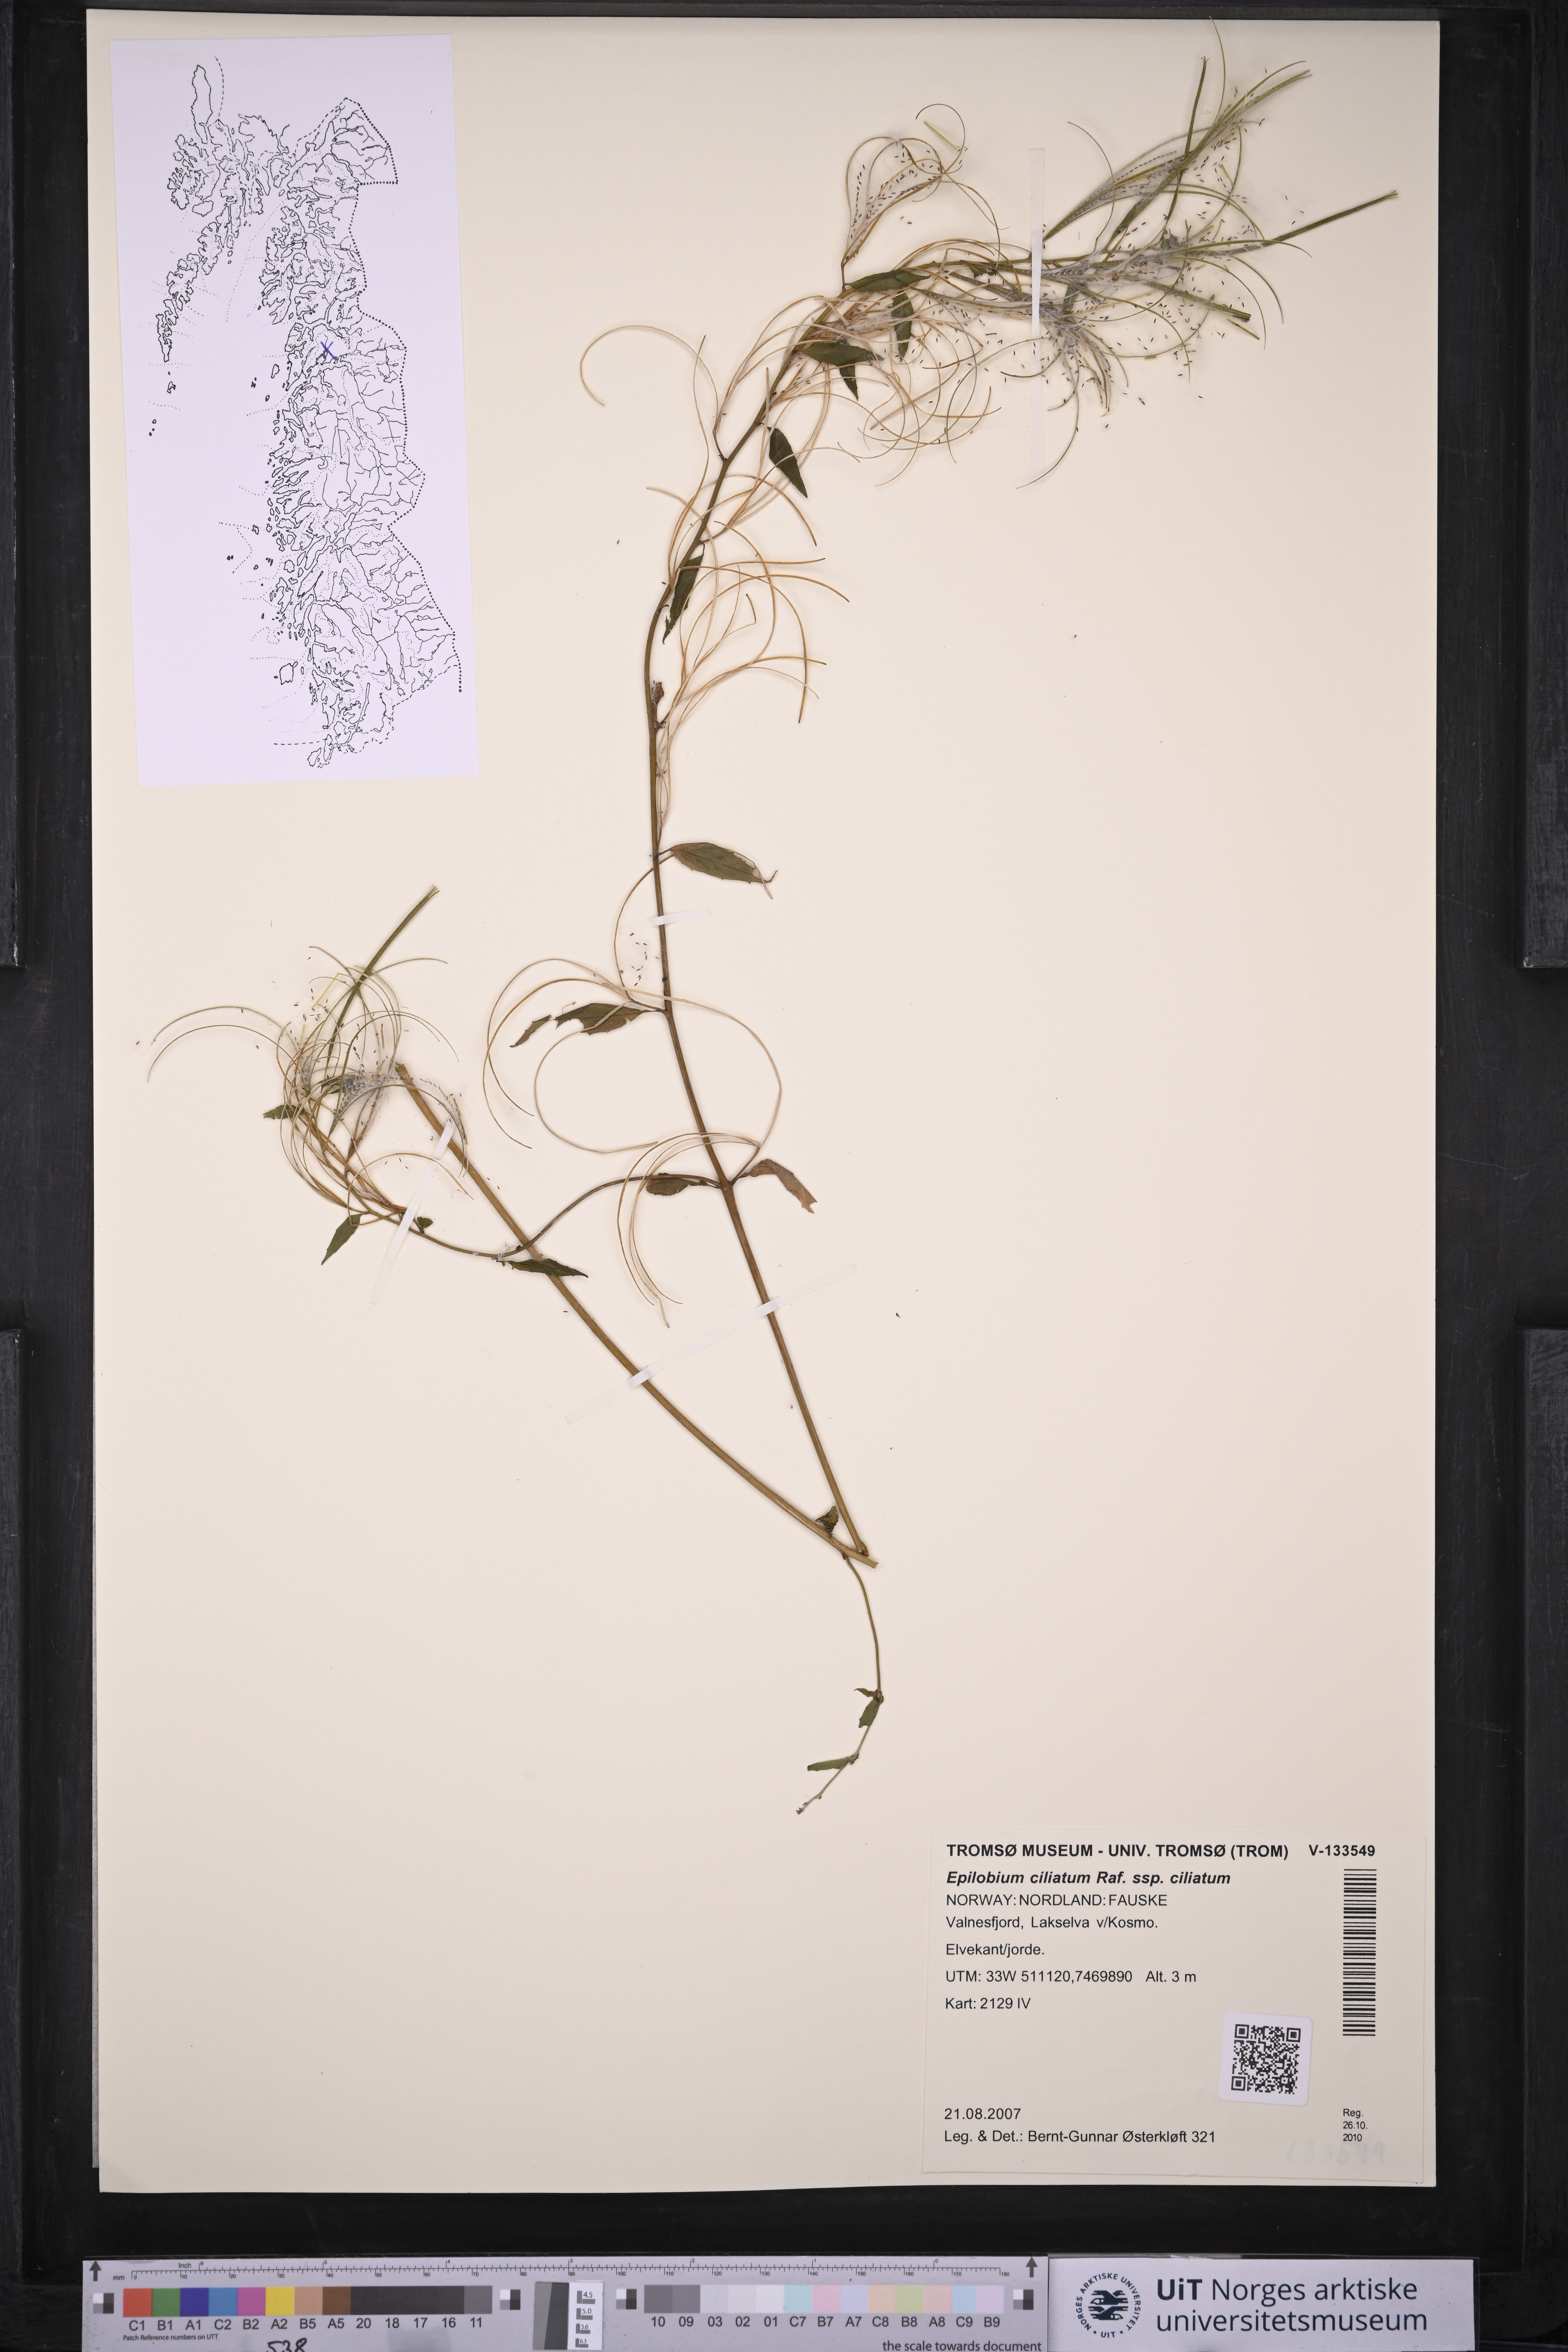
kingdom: Plantae
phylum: Tracheophyta
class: Magnoliopsida
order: Myrtales
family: Onagraceae
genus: Epilobium
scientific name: Epilobium ciliatum
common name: American willowherb
